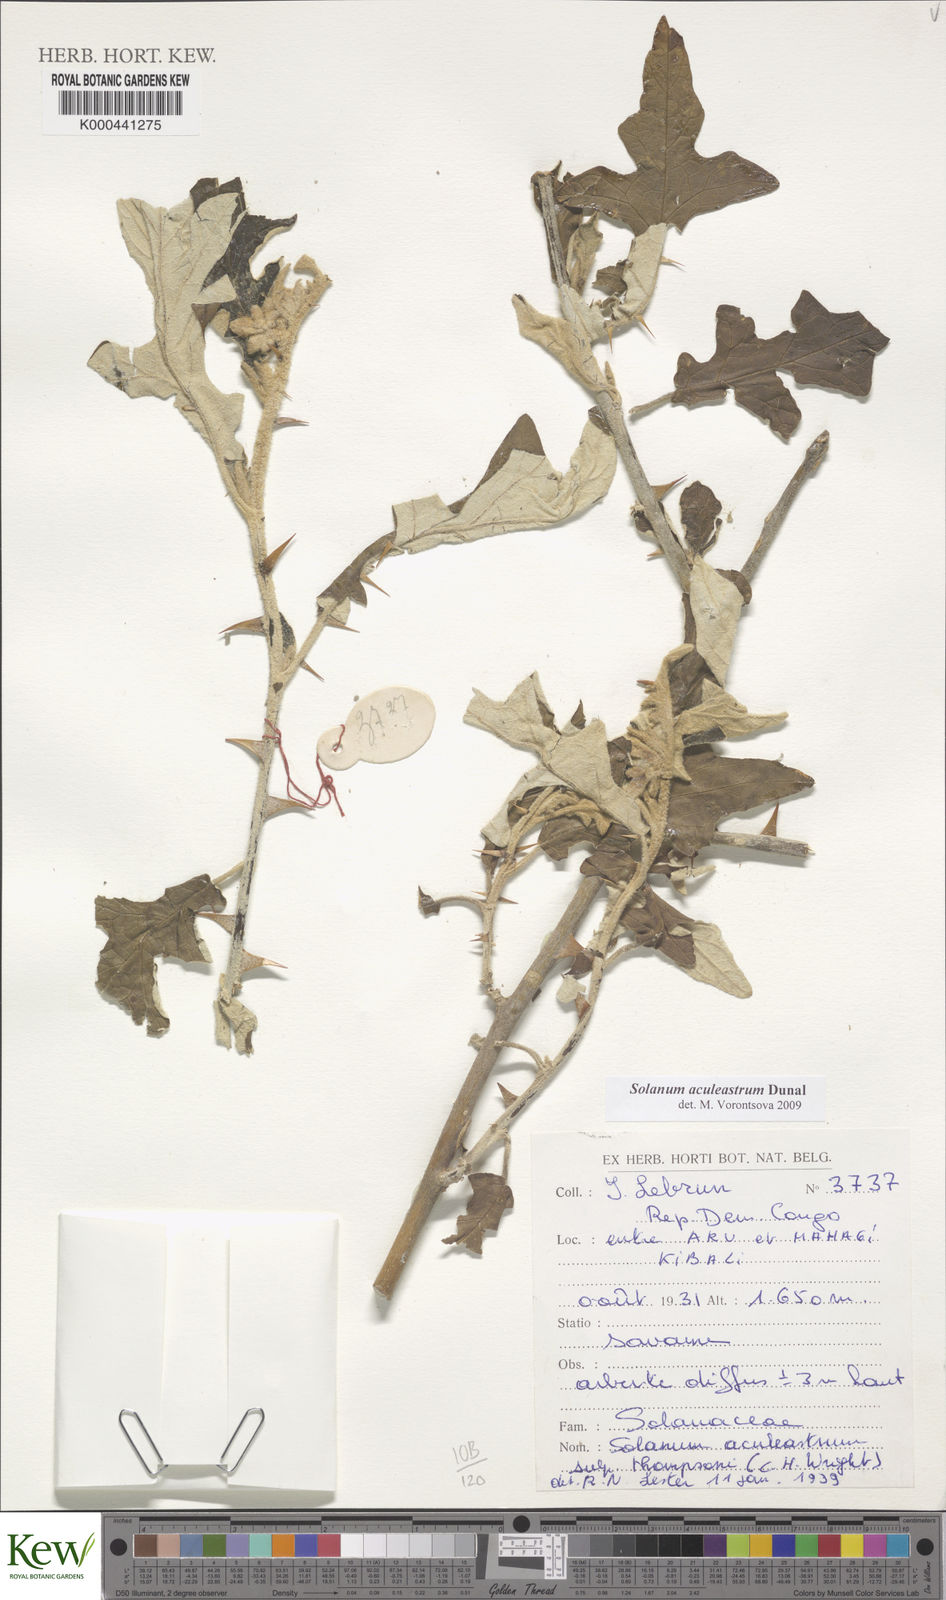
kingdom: Plantae
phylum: Tracheophyta
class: Magnoliopsida
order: Solanales
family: Solanaceae
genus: Solanum
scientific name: Solanum aculeastrum
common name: Goat bitter-apple
